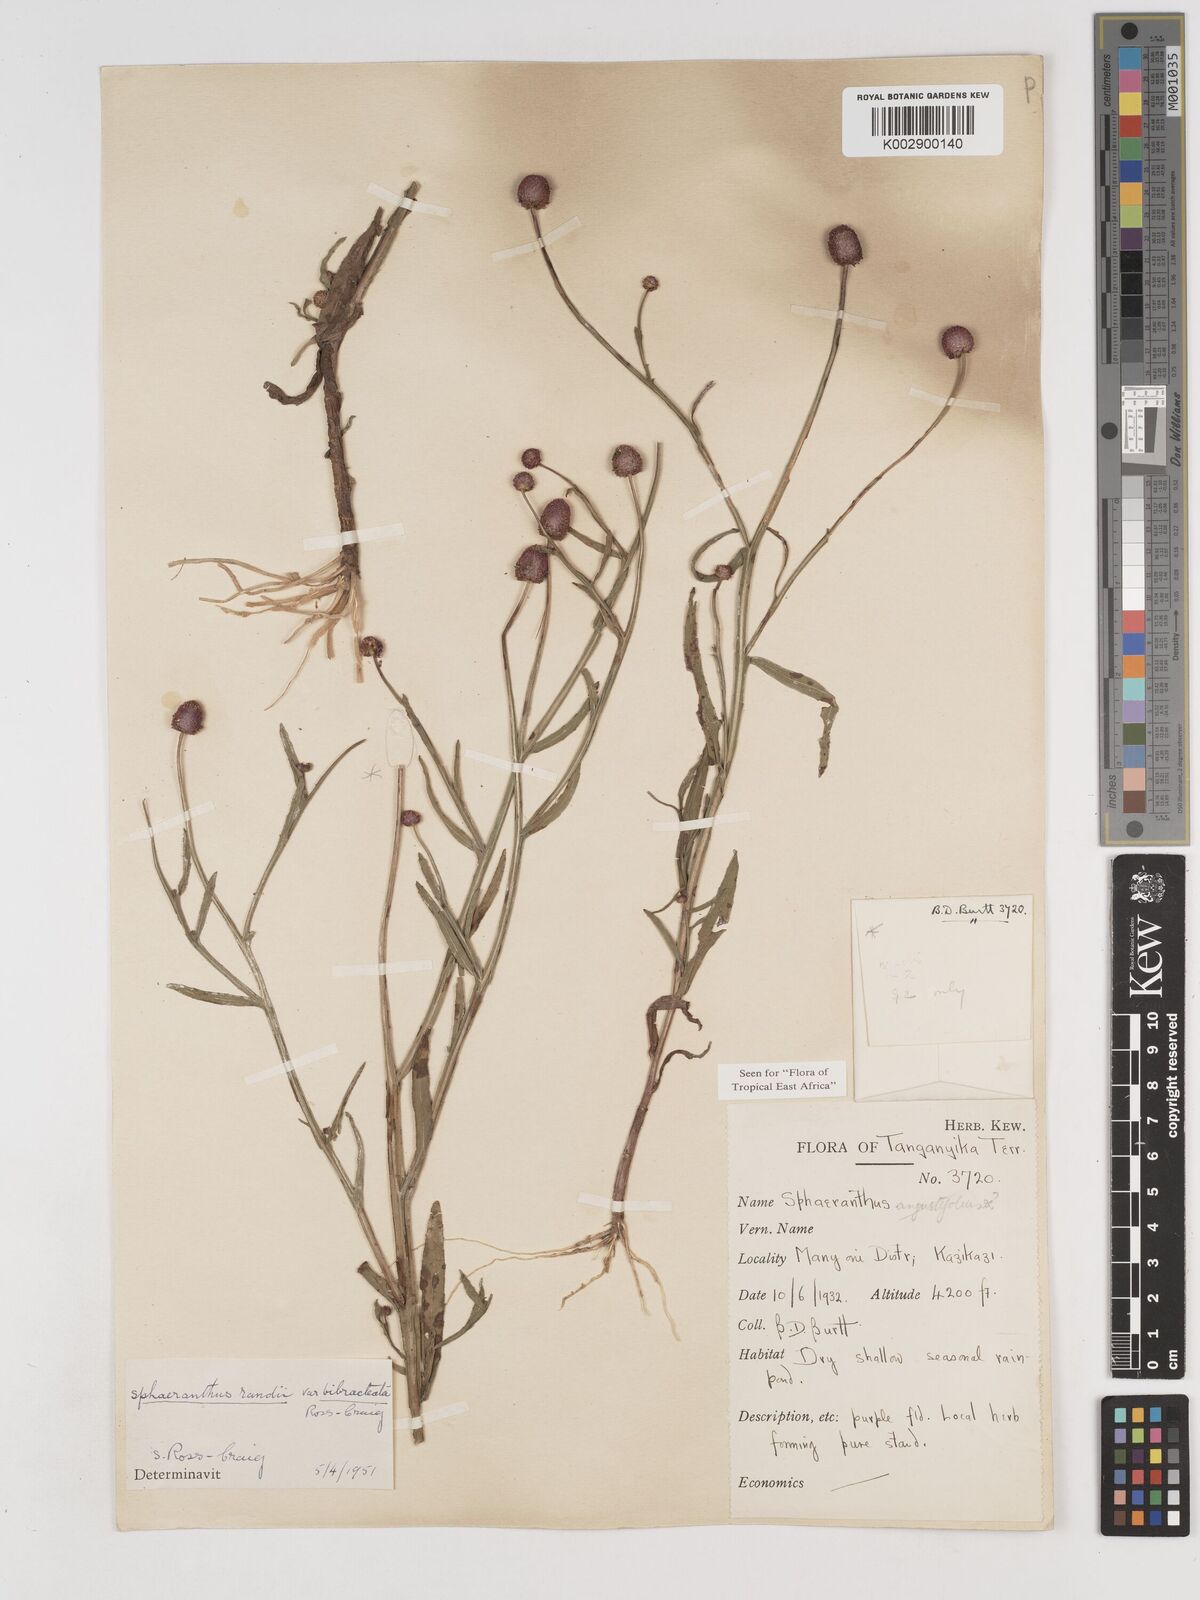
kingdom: Plantae
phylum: Tracheophyta
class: Magnoliopsida
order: Asterales
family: Asteraceae
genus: Sphaeranthus
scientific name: Sphaeranthus randii
